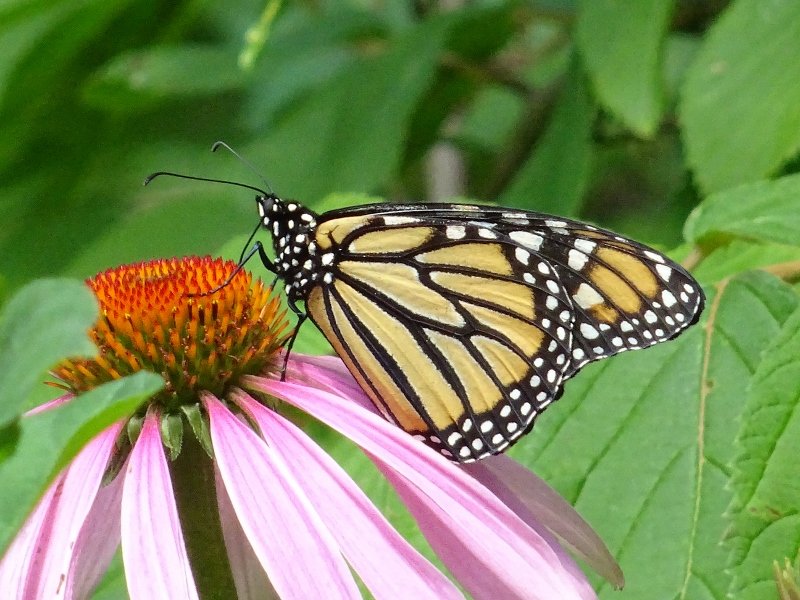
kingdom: Animalia
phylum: Arthropoda
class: Insecta
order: Lepidoptera
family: Nymphalidae
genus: Danaus
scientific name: Danaus plexippus
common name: Monarch
